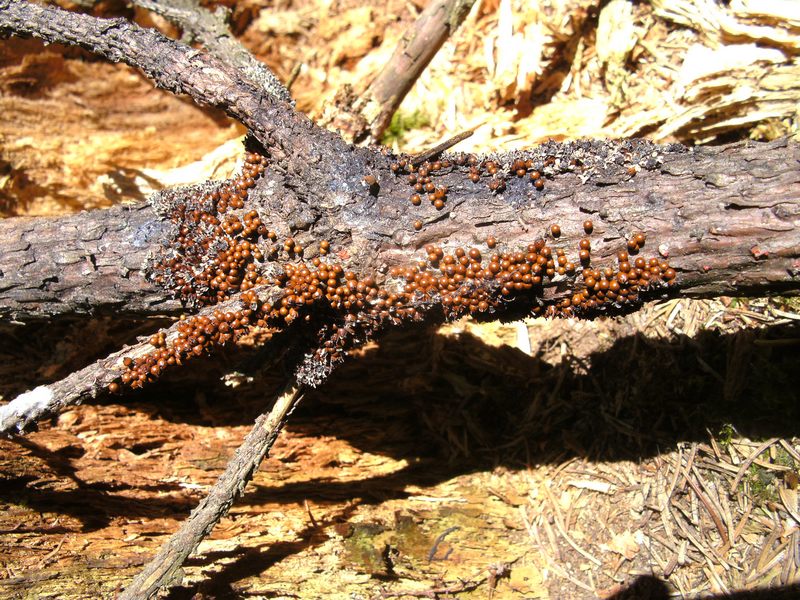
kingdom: Protozoa
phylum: Mycetozoa
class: Myxomycetes
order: Physarales
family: Physaraceae
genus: Leocarpus
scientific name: Leocarpus fragilis
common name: poleret glatfrø
